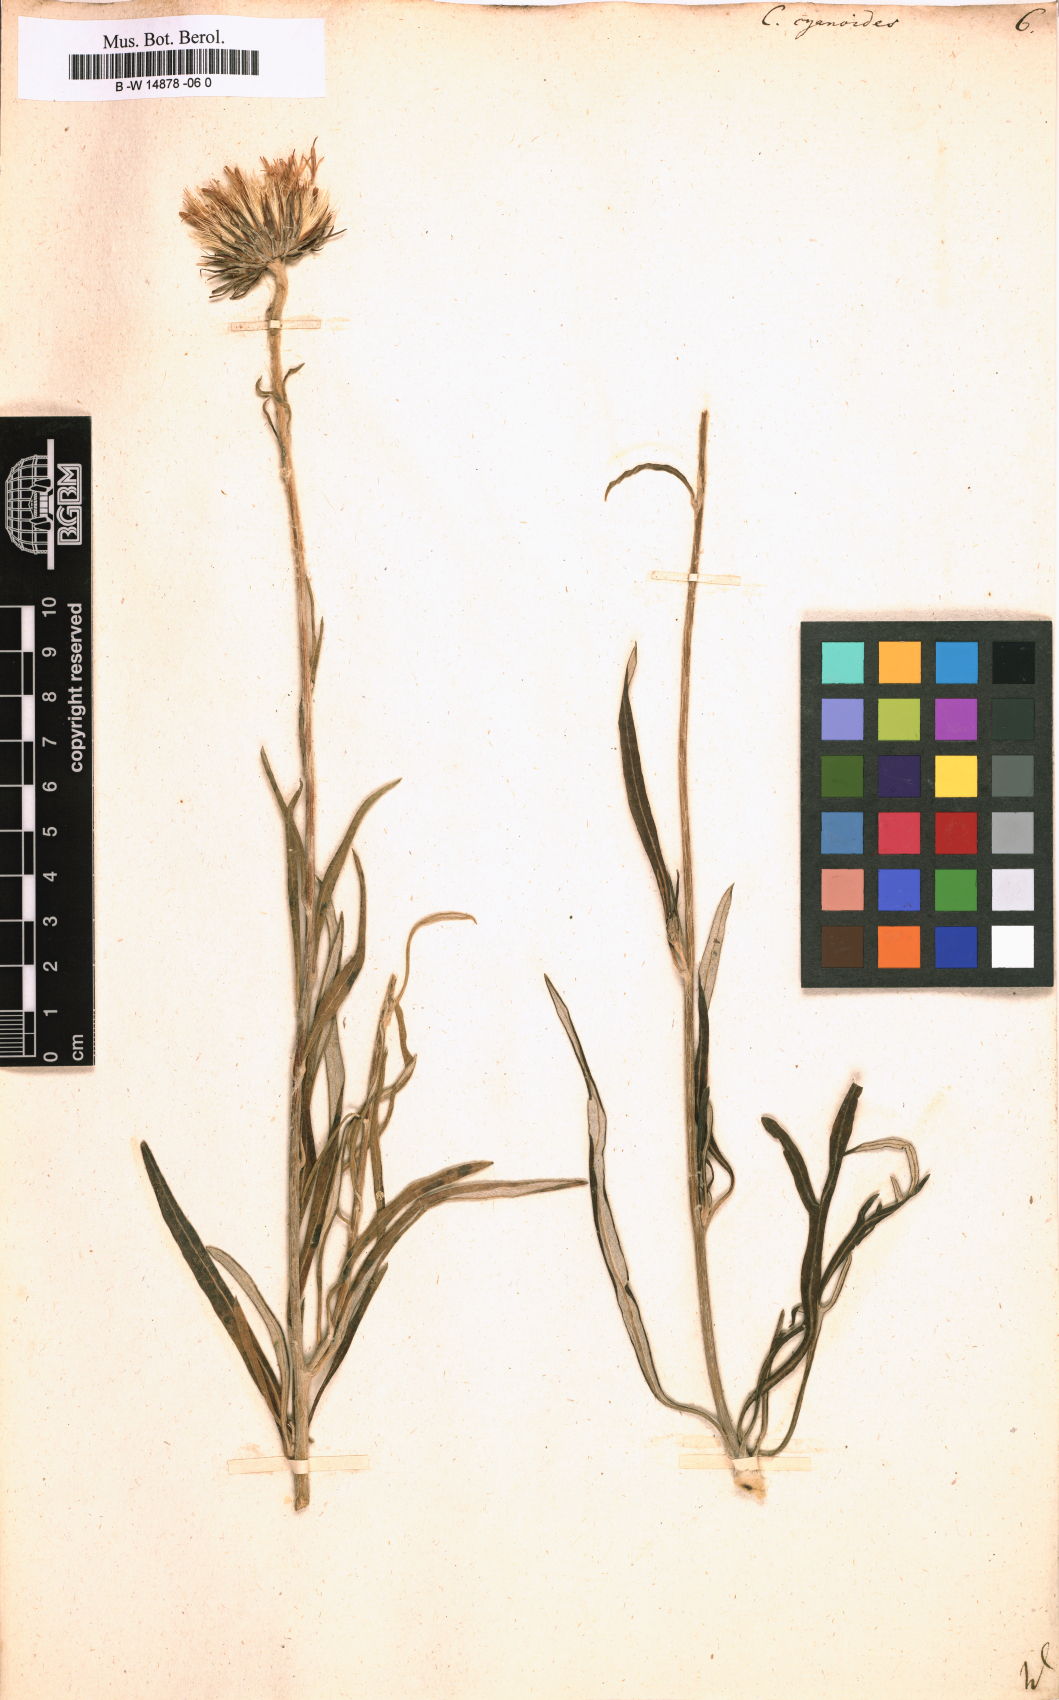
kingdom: Plantae
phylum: Tracheophyta
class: Magnoliopsida
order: Asterales
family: Asteraceae
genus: Jurinea
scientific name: Jurinea
